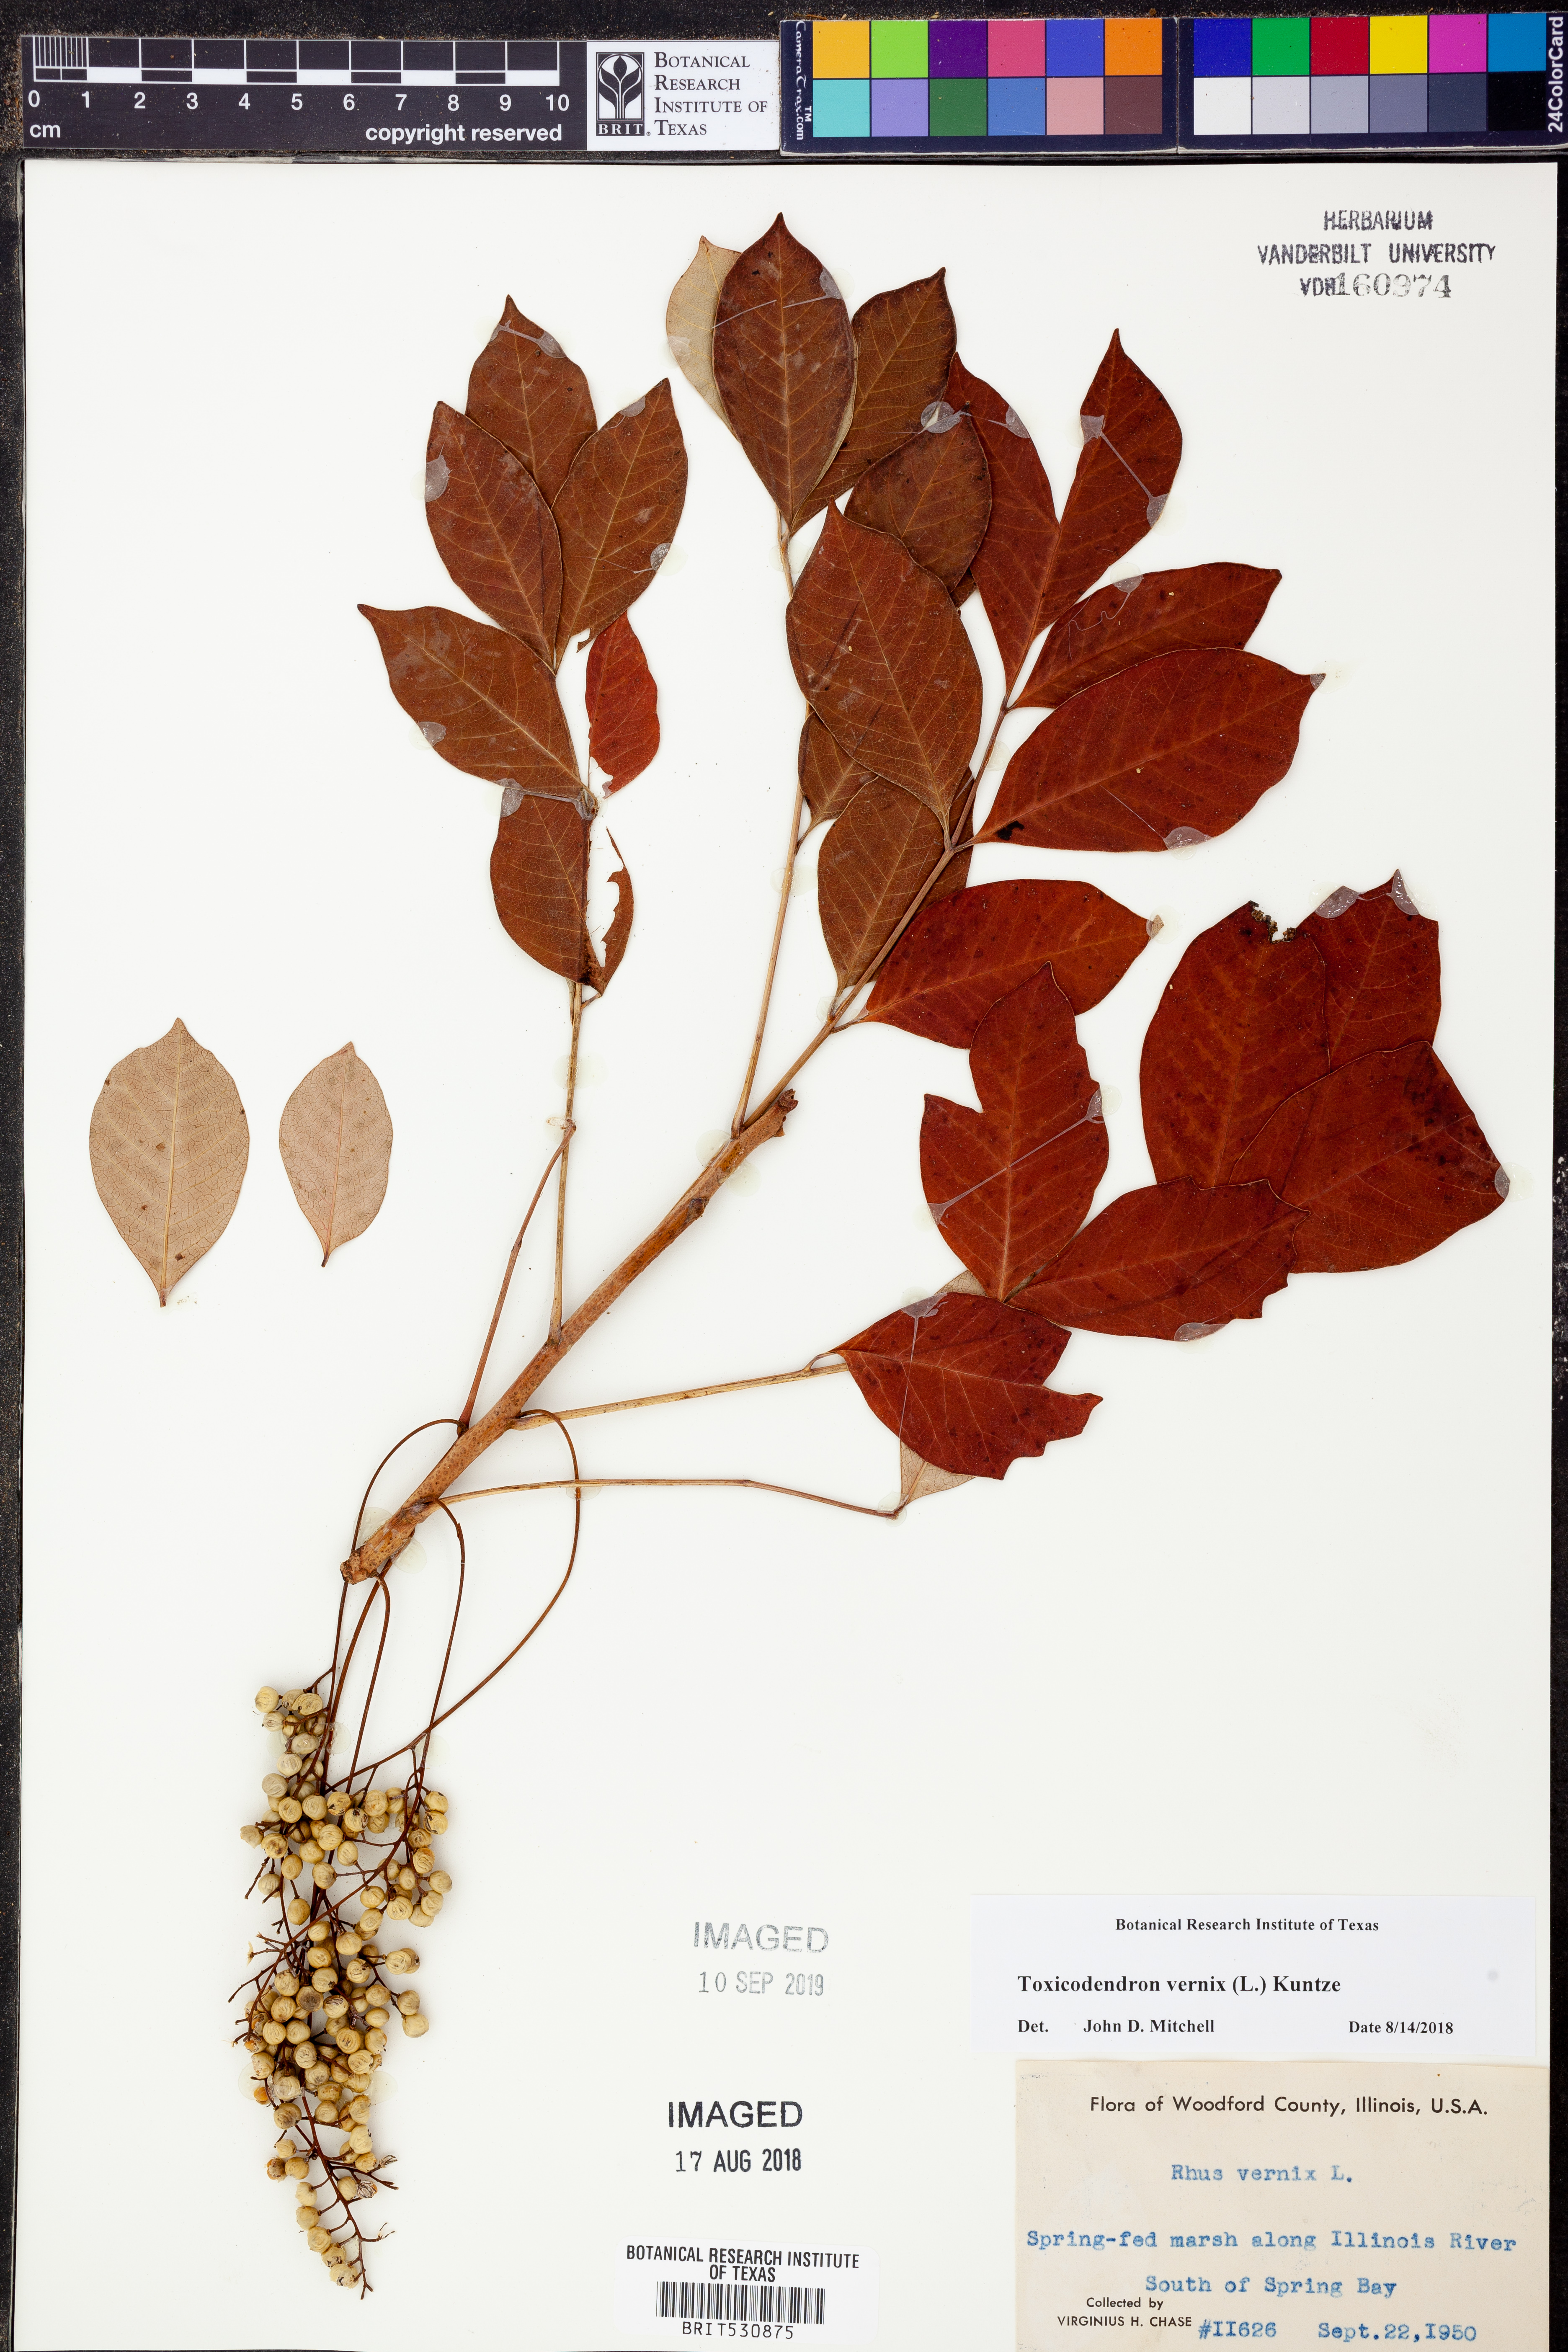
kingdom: Plantae
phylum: Tracheophyta
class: Magnoliopsida
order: Sapindales
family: Anacardiaceae
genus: Toxicodendron
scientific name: Toxicodendron vernix
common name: Poison sumac
